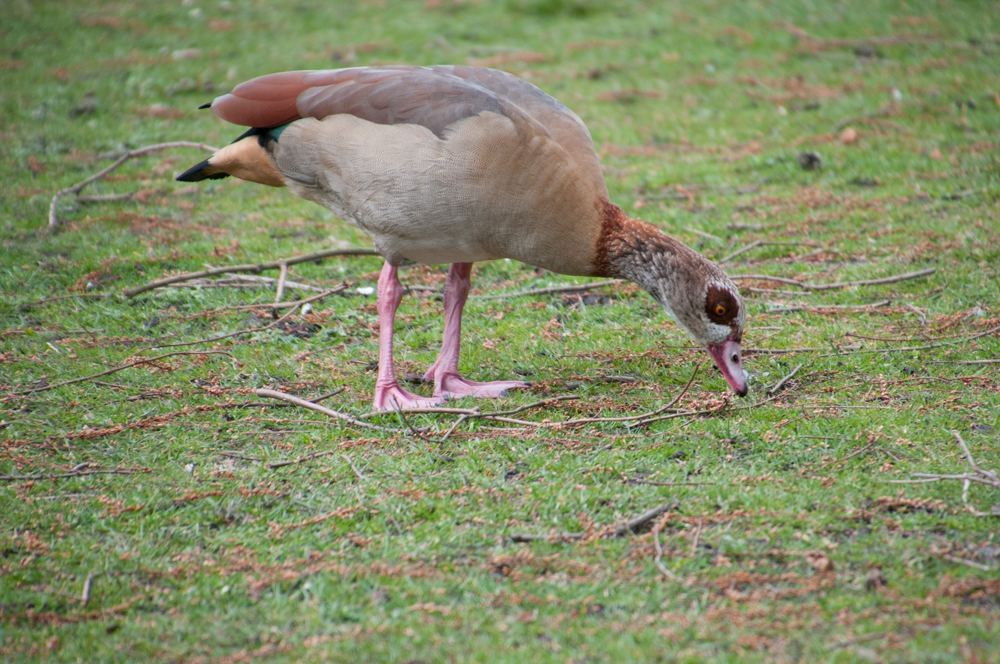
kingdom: Animalia
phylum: Chordata
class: Aves
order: Anseriformes
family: Anatidae
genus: Alopochen
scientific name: Alopochen aegyptiaca
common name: Egyptian goose
